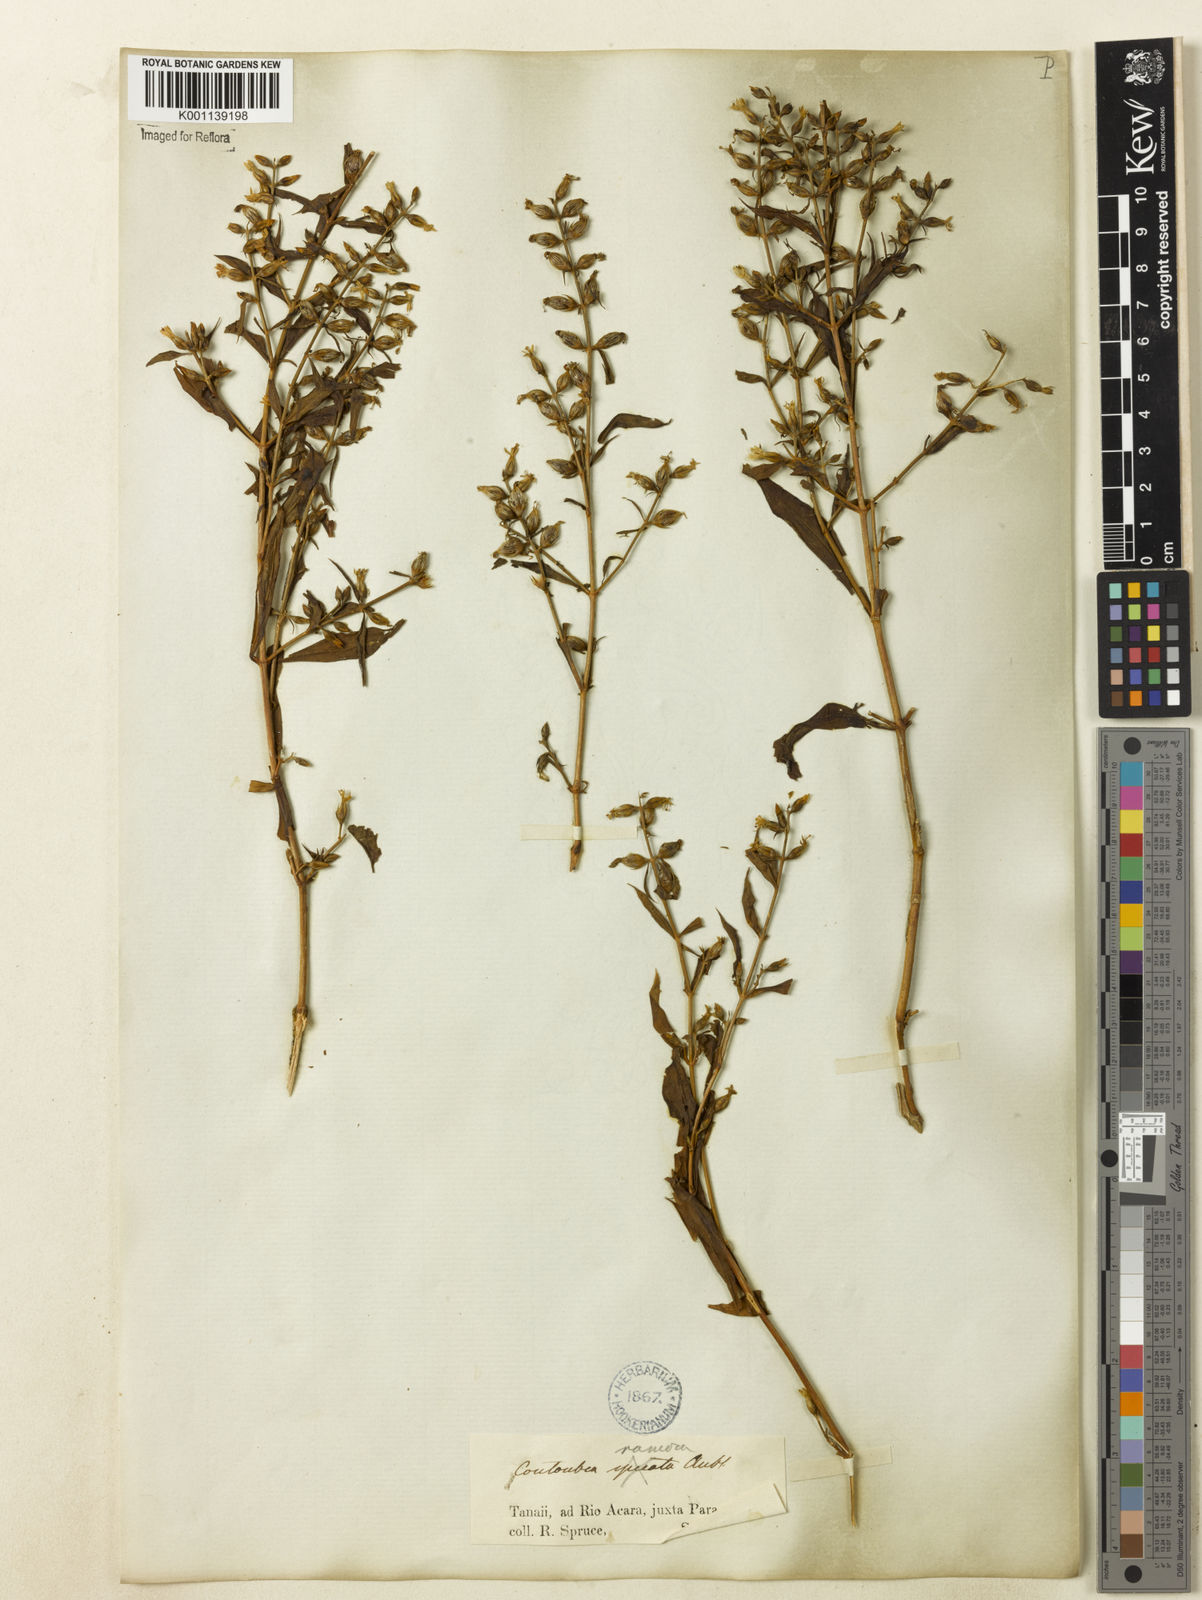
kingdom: Plantae
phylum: Tracheophyta
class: Magnoliopsida
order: Gentianales
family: Gentianaceae
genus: Coutoubea
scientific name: Coutoubea ramosa
